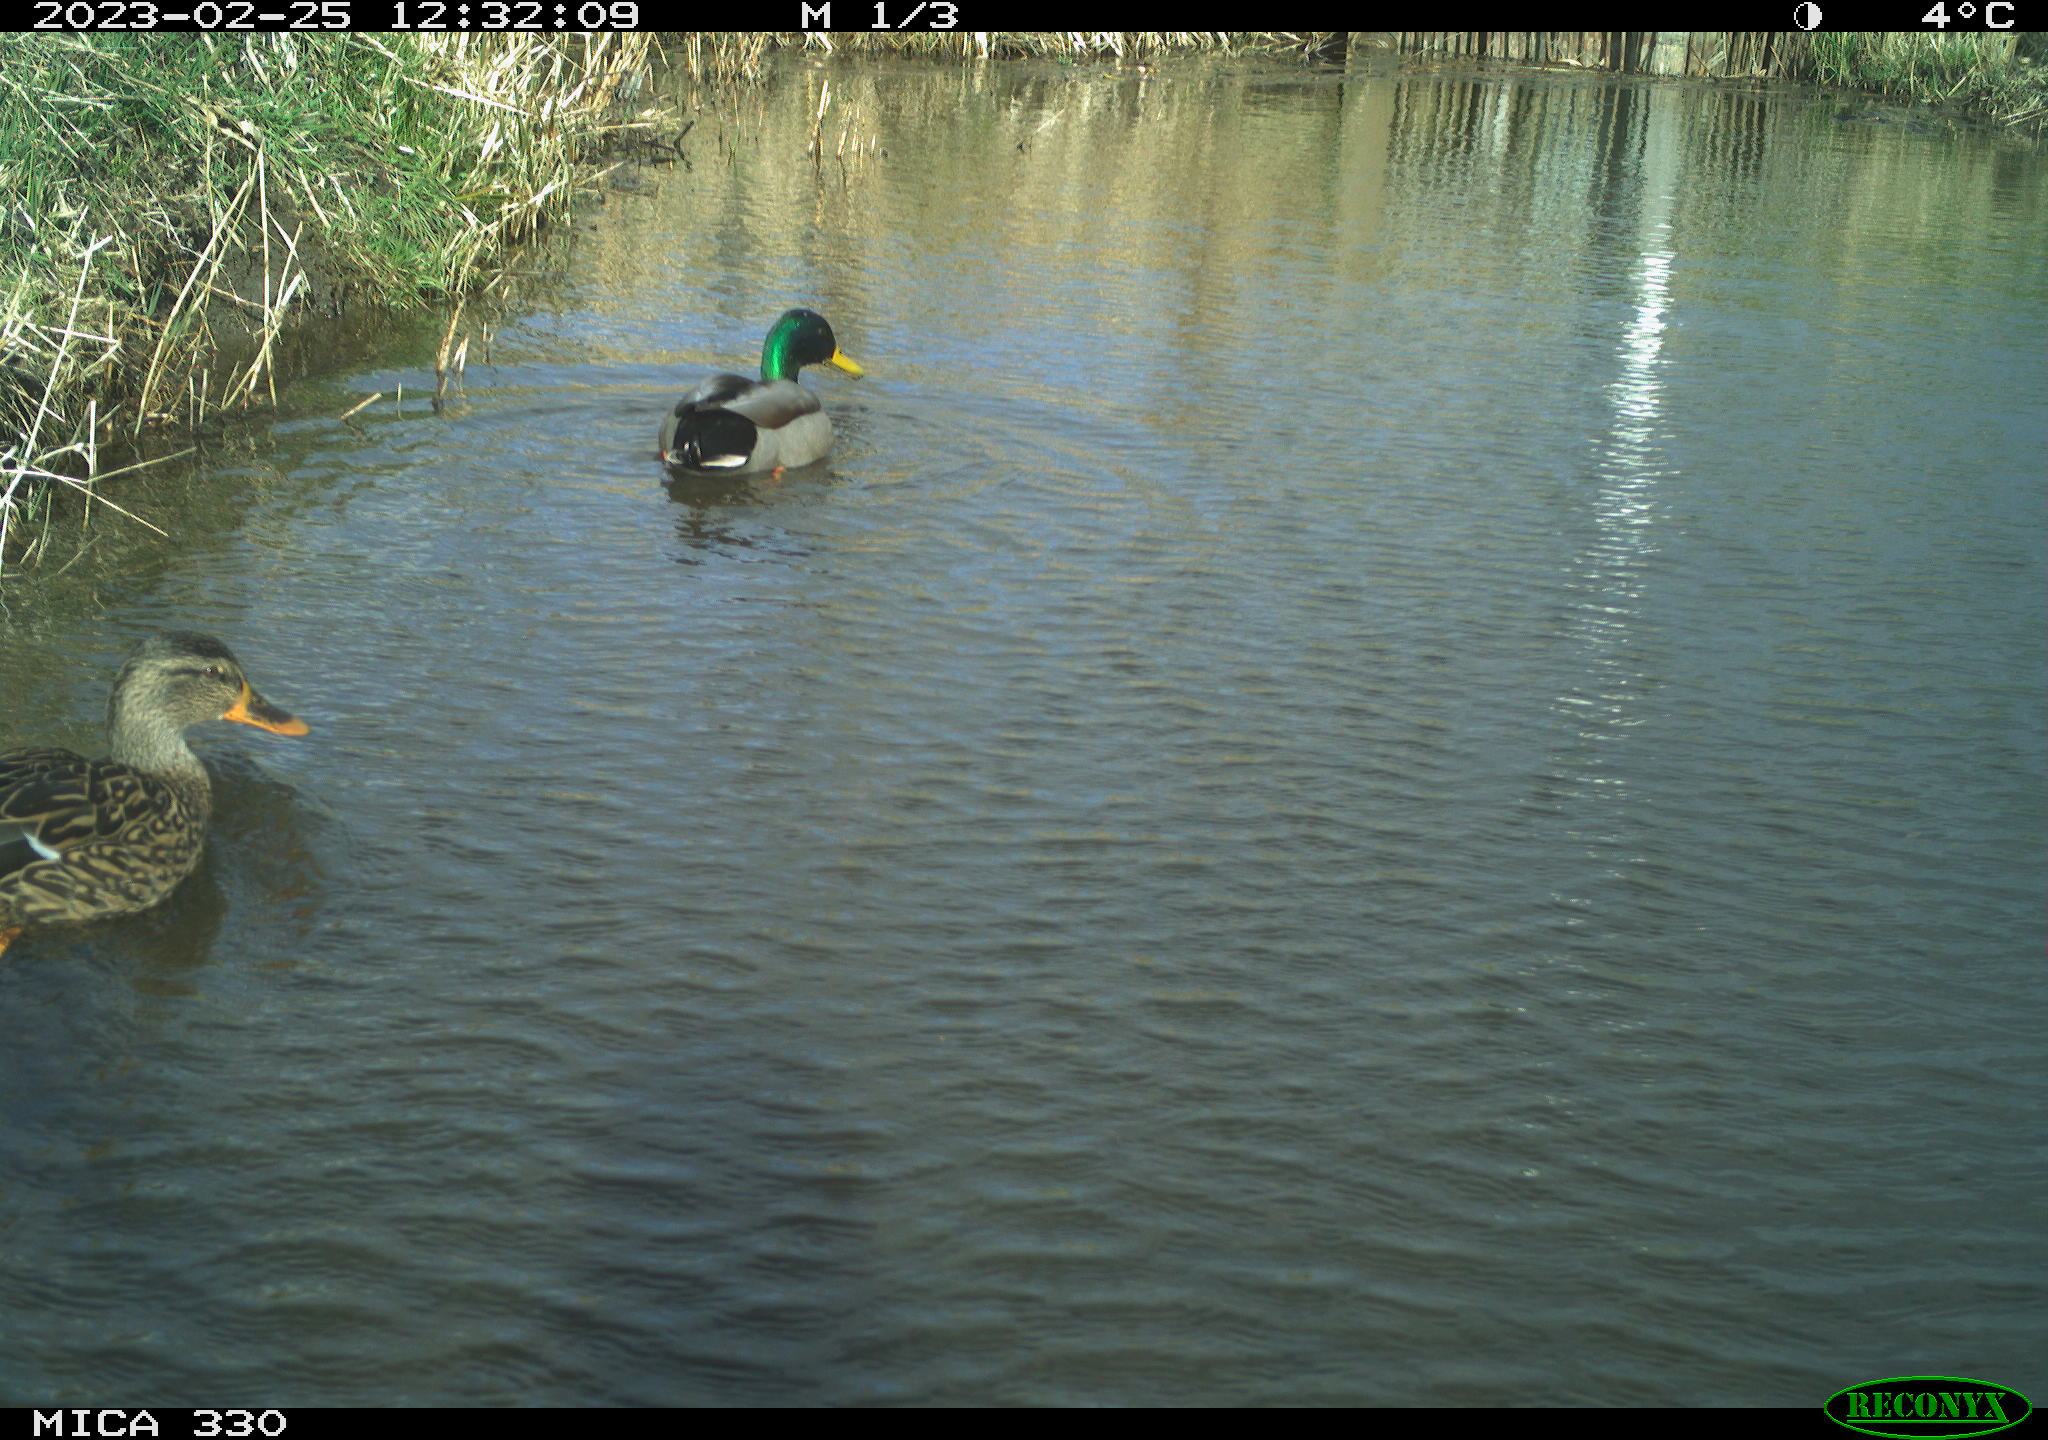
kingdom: Animalia
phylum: Chordata
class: Aves
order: Anseriformes
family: Anatidae
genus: Anas
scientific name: Anas
